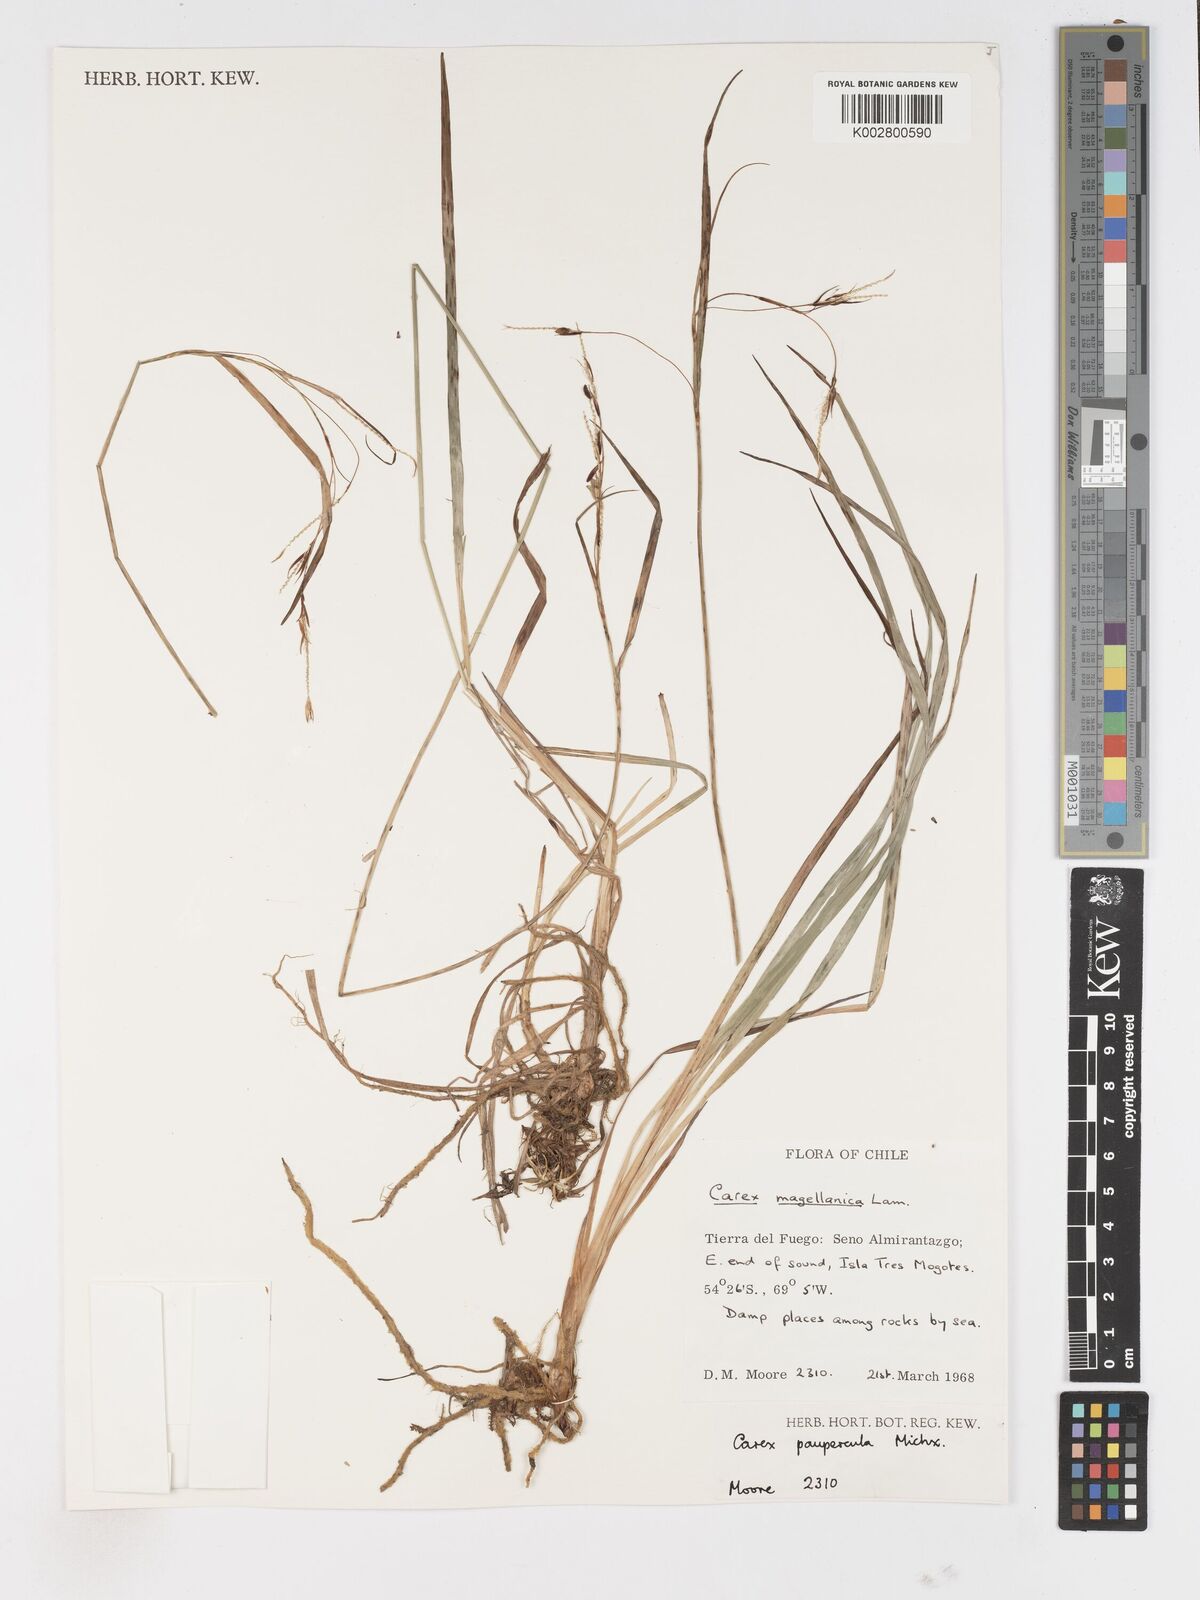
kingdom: Plantae
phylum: Tracheophyta
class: Liliopsida
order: Poales
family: Cyperaceae
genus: Carex
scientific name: Carex magellanica
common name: Bog sedge
